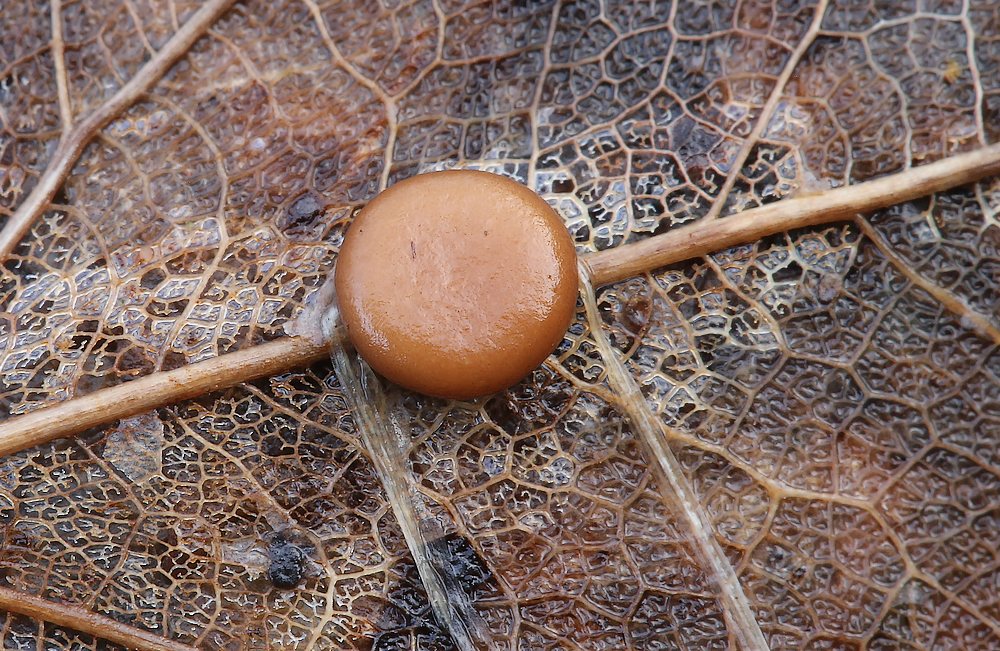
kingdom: Fungi
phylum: Basidiomycota
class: Agaricomycetes
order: Agaricales
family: Typhulaceae
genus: Macrotyphula
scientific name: Macrotyphula phacorrhiza
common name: lang rørkølle
